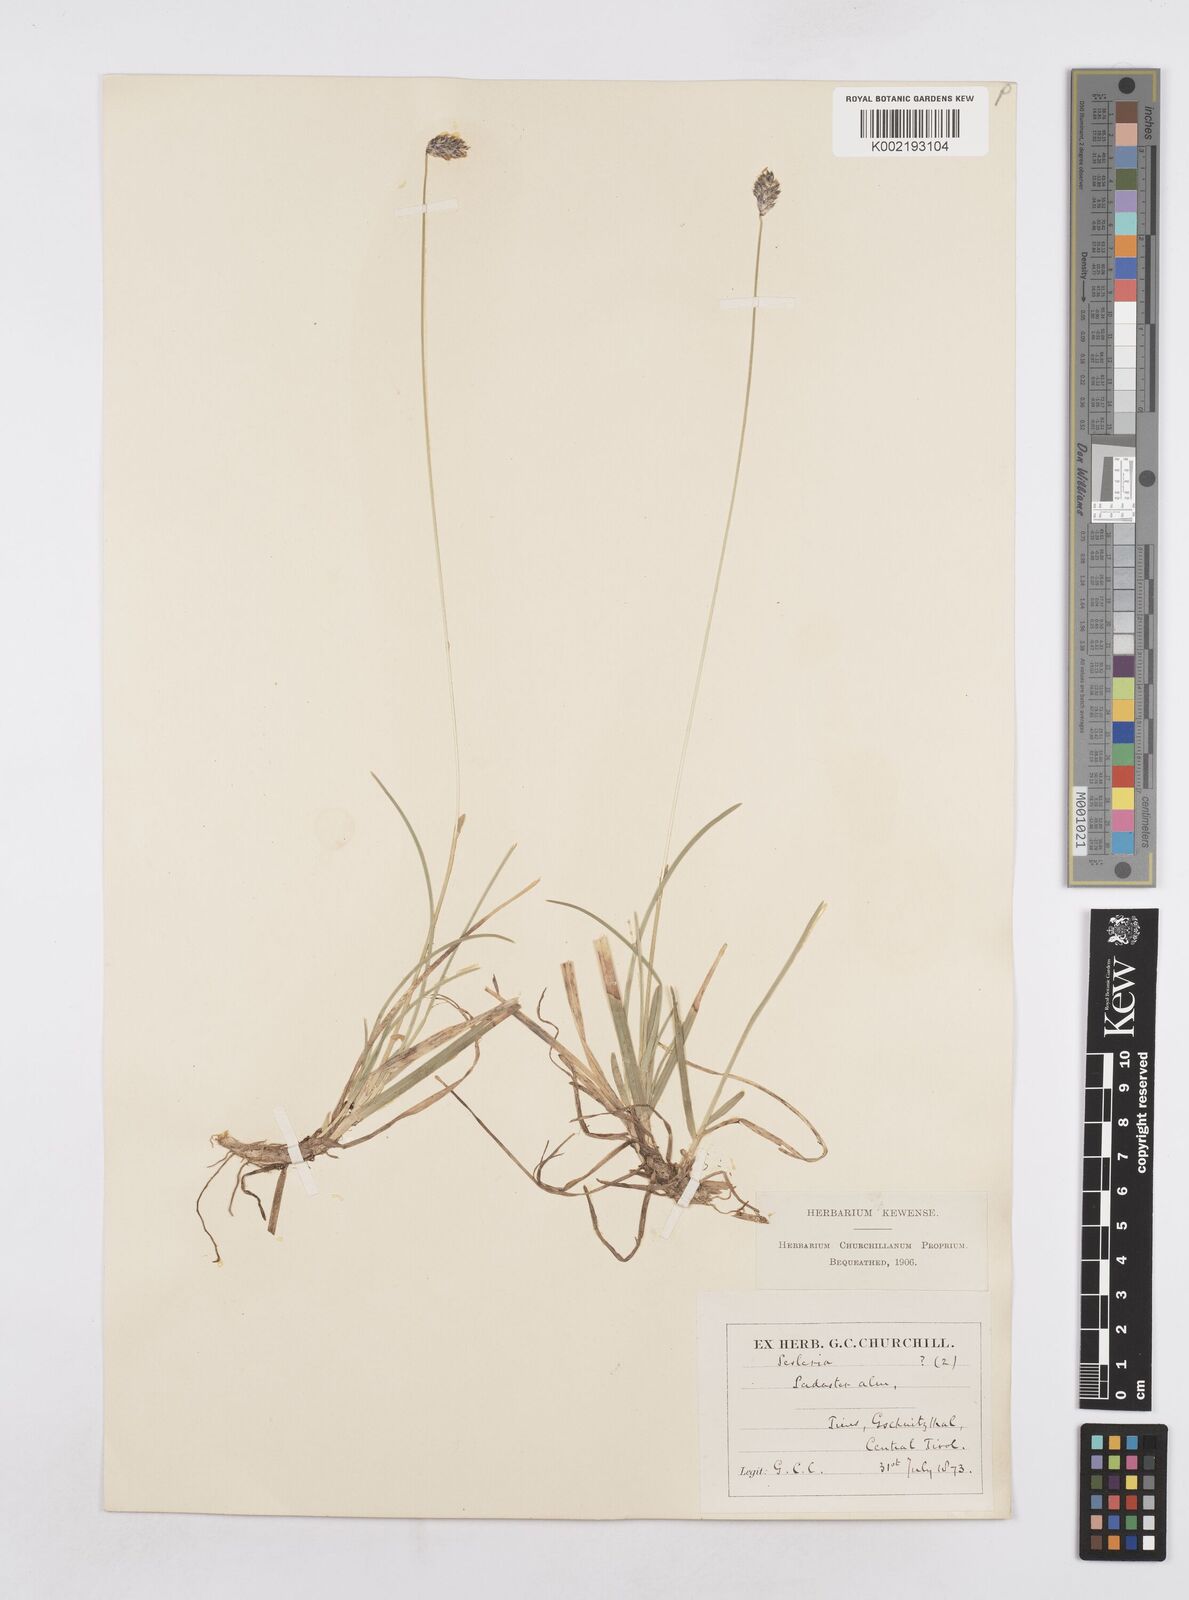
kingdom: Plantae
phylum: Tracheophyta
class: Liliopsida
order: Poales
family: Poaceae
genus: Sesleria
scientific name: Sesleria
